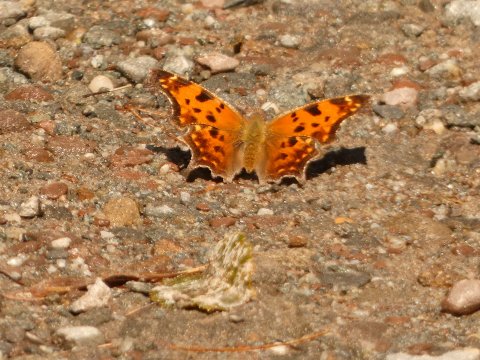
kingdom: Animalia
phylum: Arthropoda
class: Insecta
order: Lepidoptera
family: Nymphalidae
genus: Polygonia
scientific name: Polygonia comma
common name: Eastern Comma
